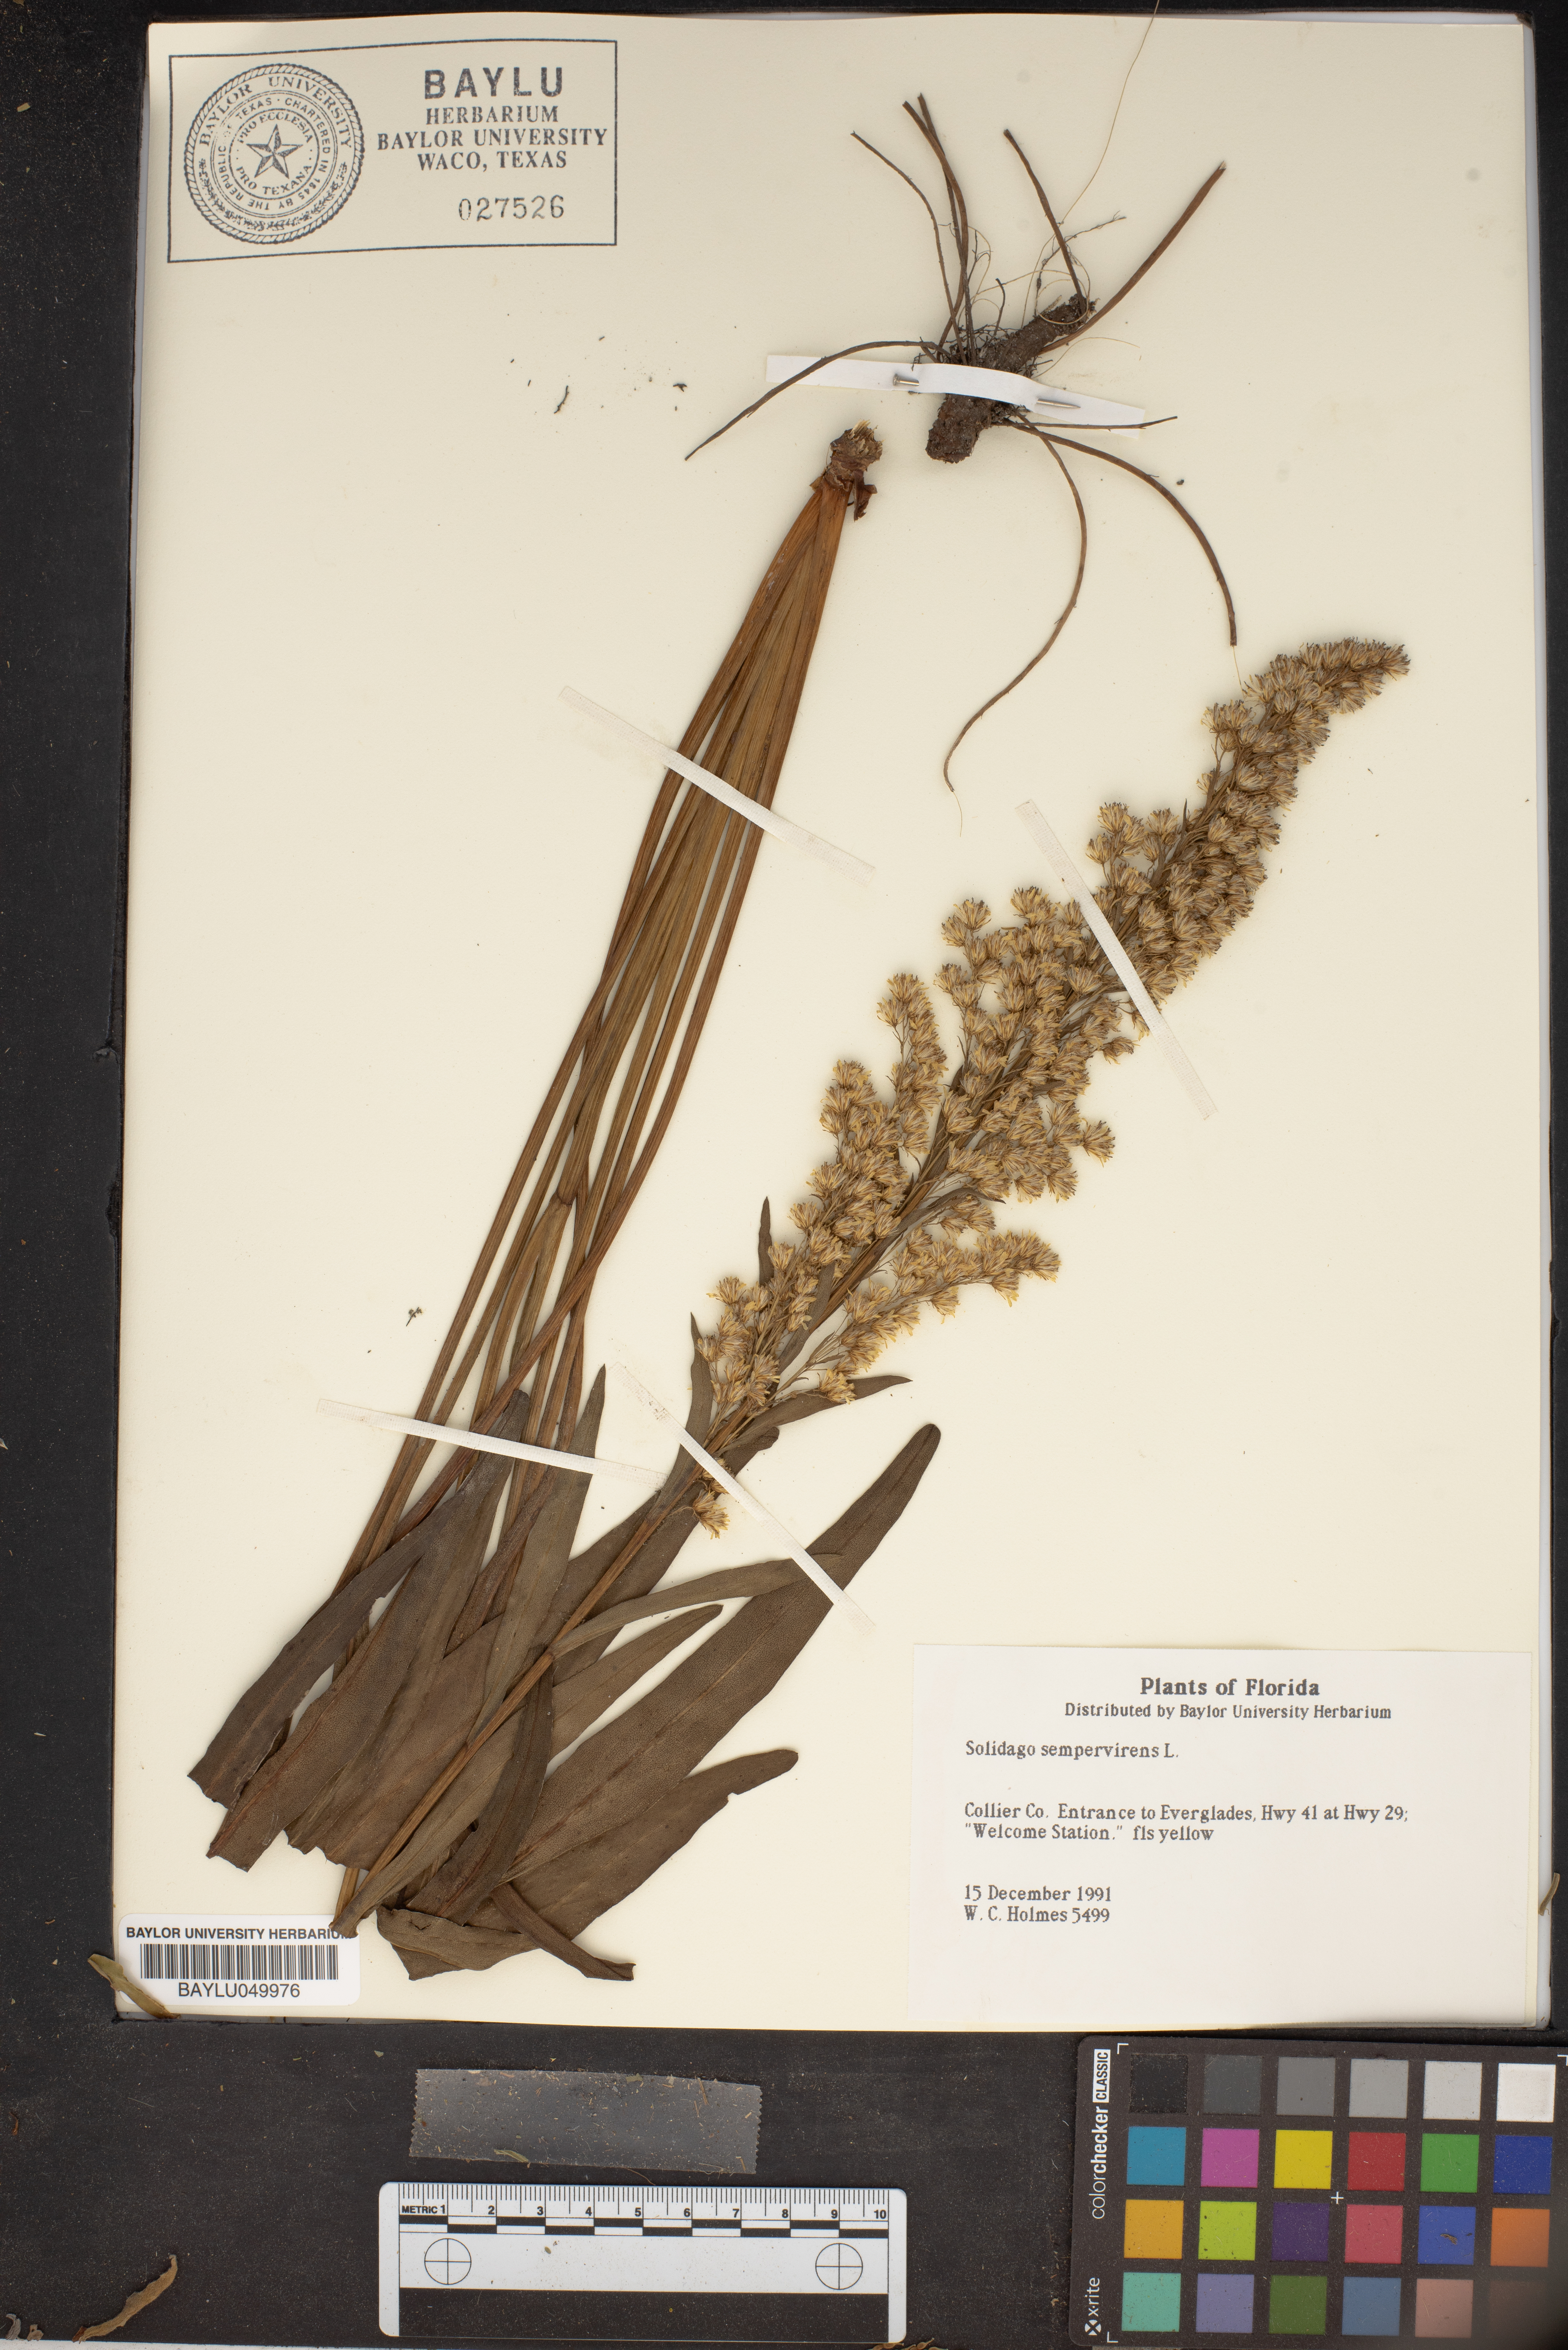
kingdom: Plantae
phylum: Tracheophyta
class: Magnoliopsida
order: Asterales
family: Asteraceae
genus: Solidago
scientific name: Solidago sempervirens
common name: Salt-marsh goldenrod
